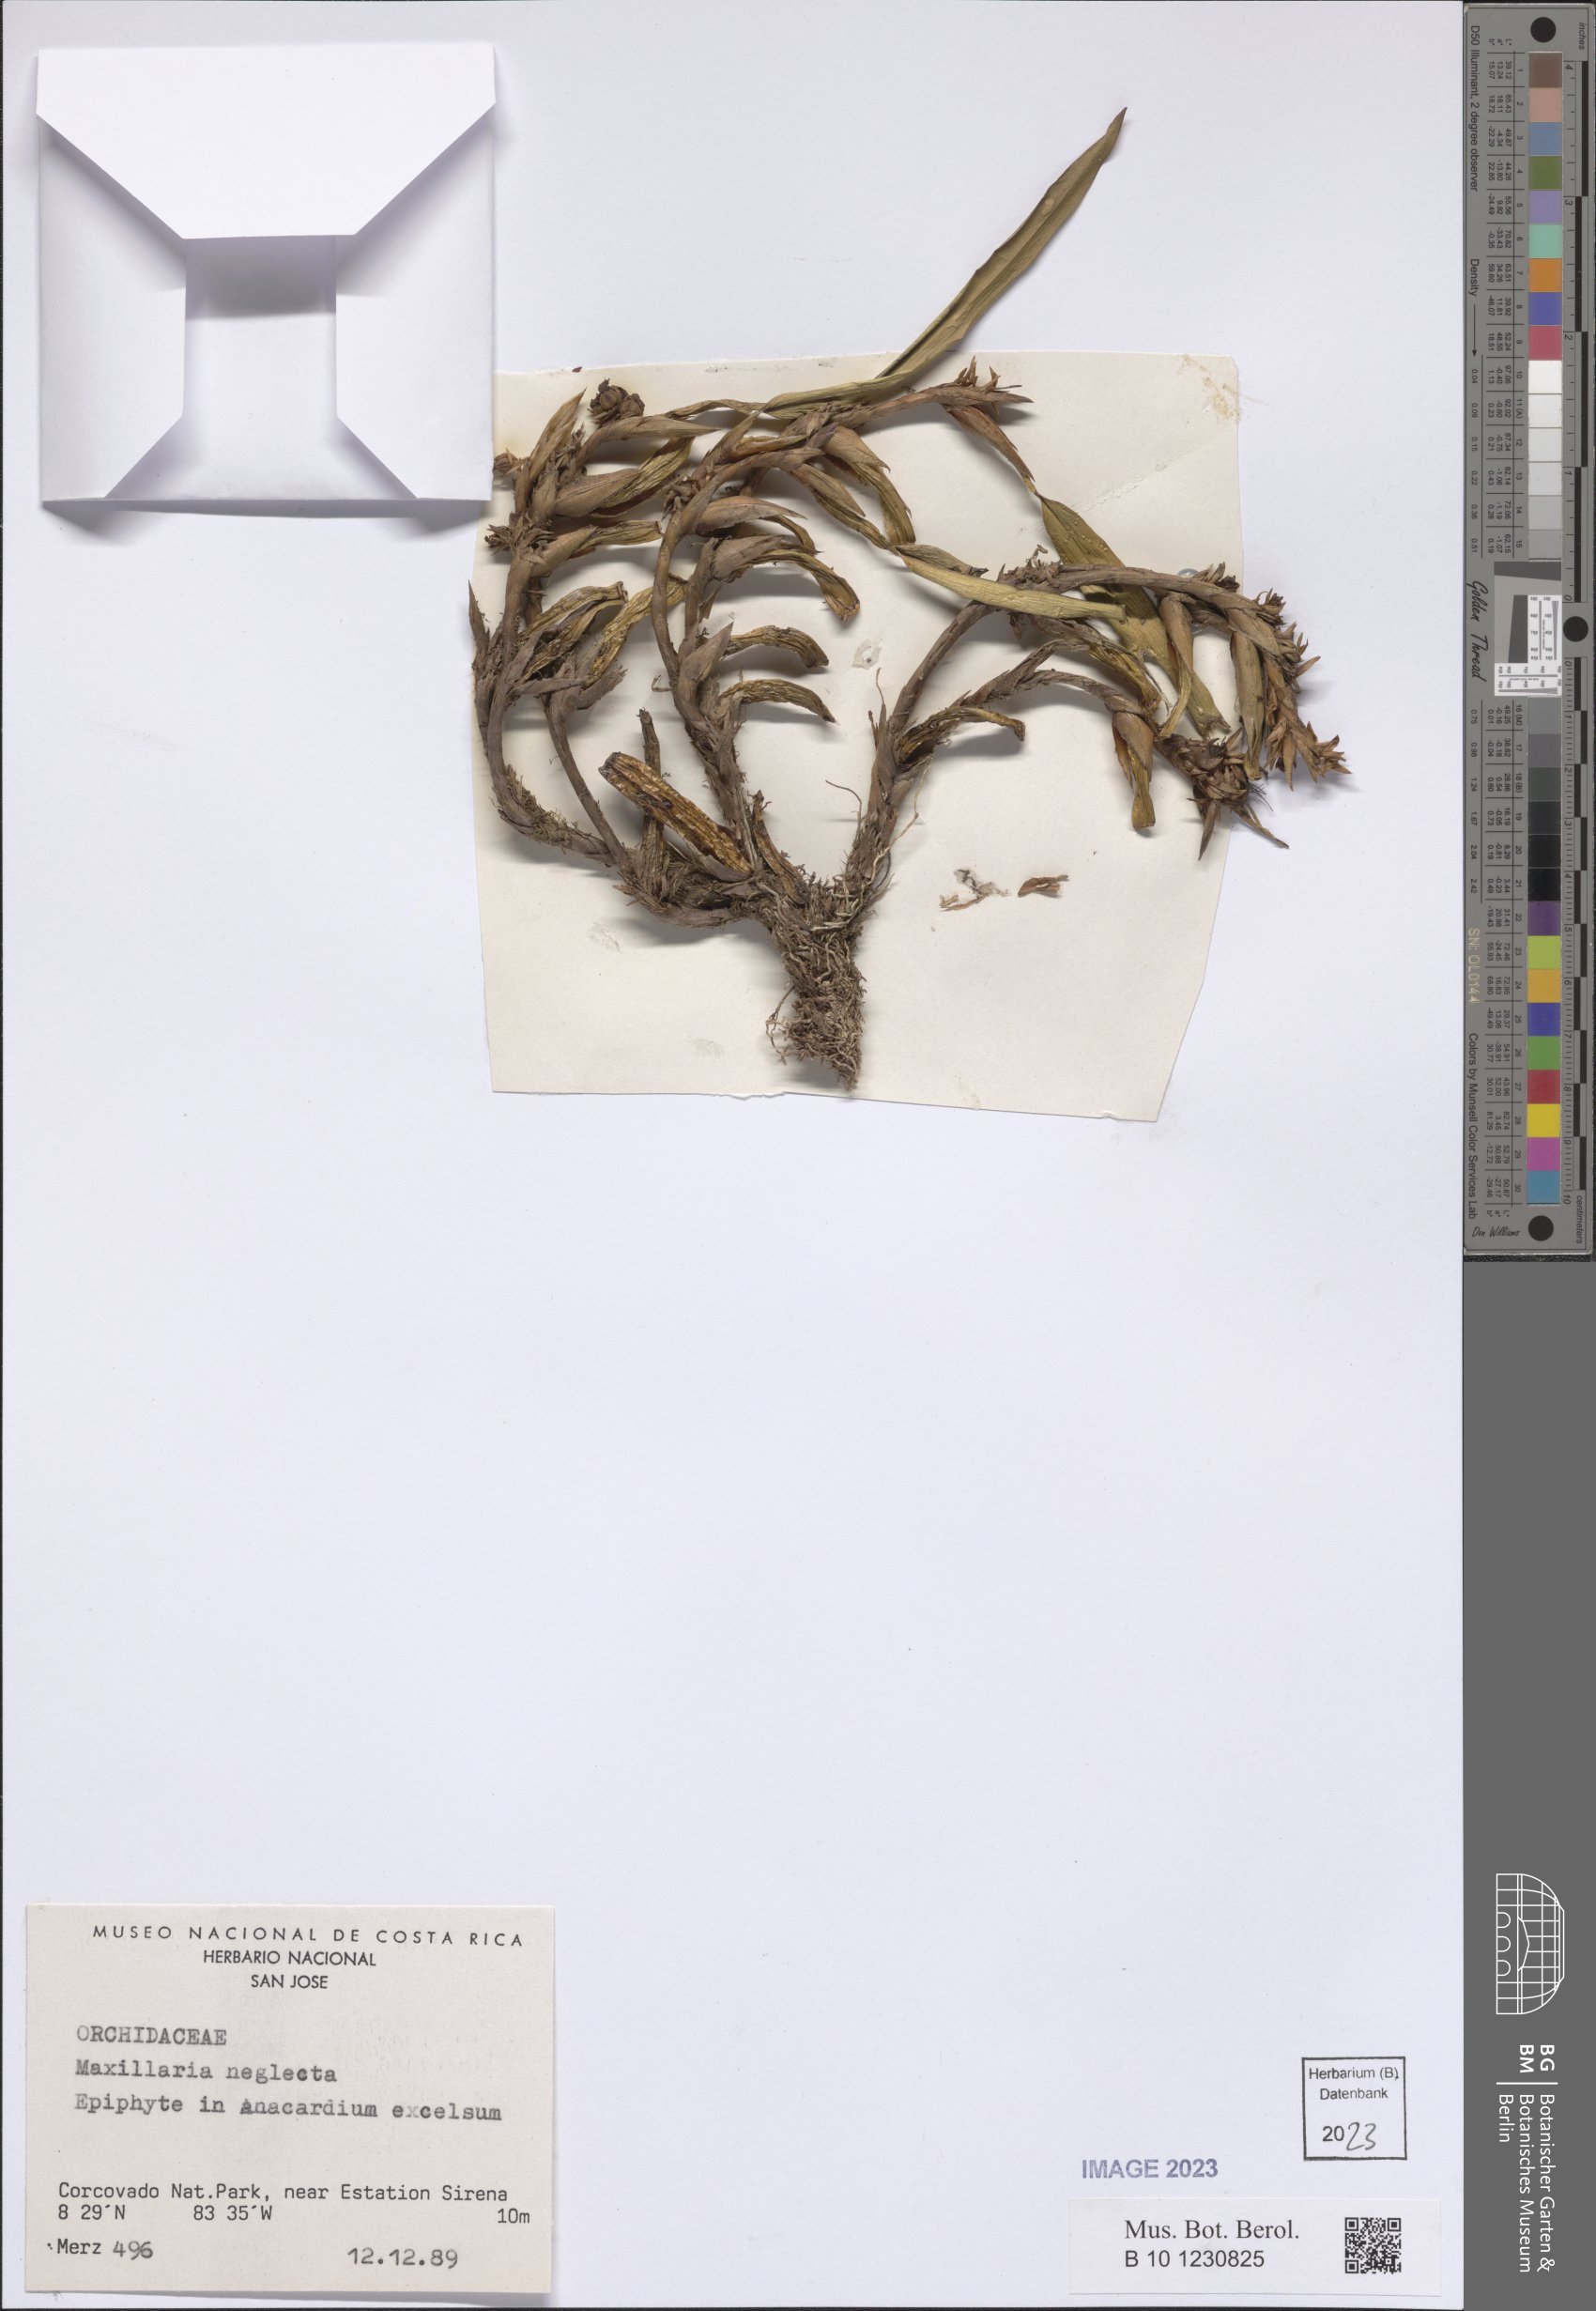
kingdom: Plantae
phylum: Tracheophyta
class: Liliopsida
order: Asparagales
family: Orchidaceae
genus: Maxillaria
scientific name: Maxillaria neglecta
